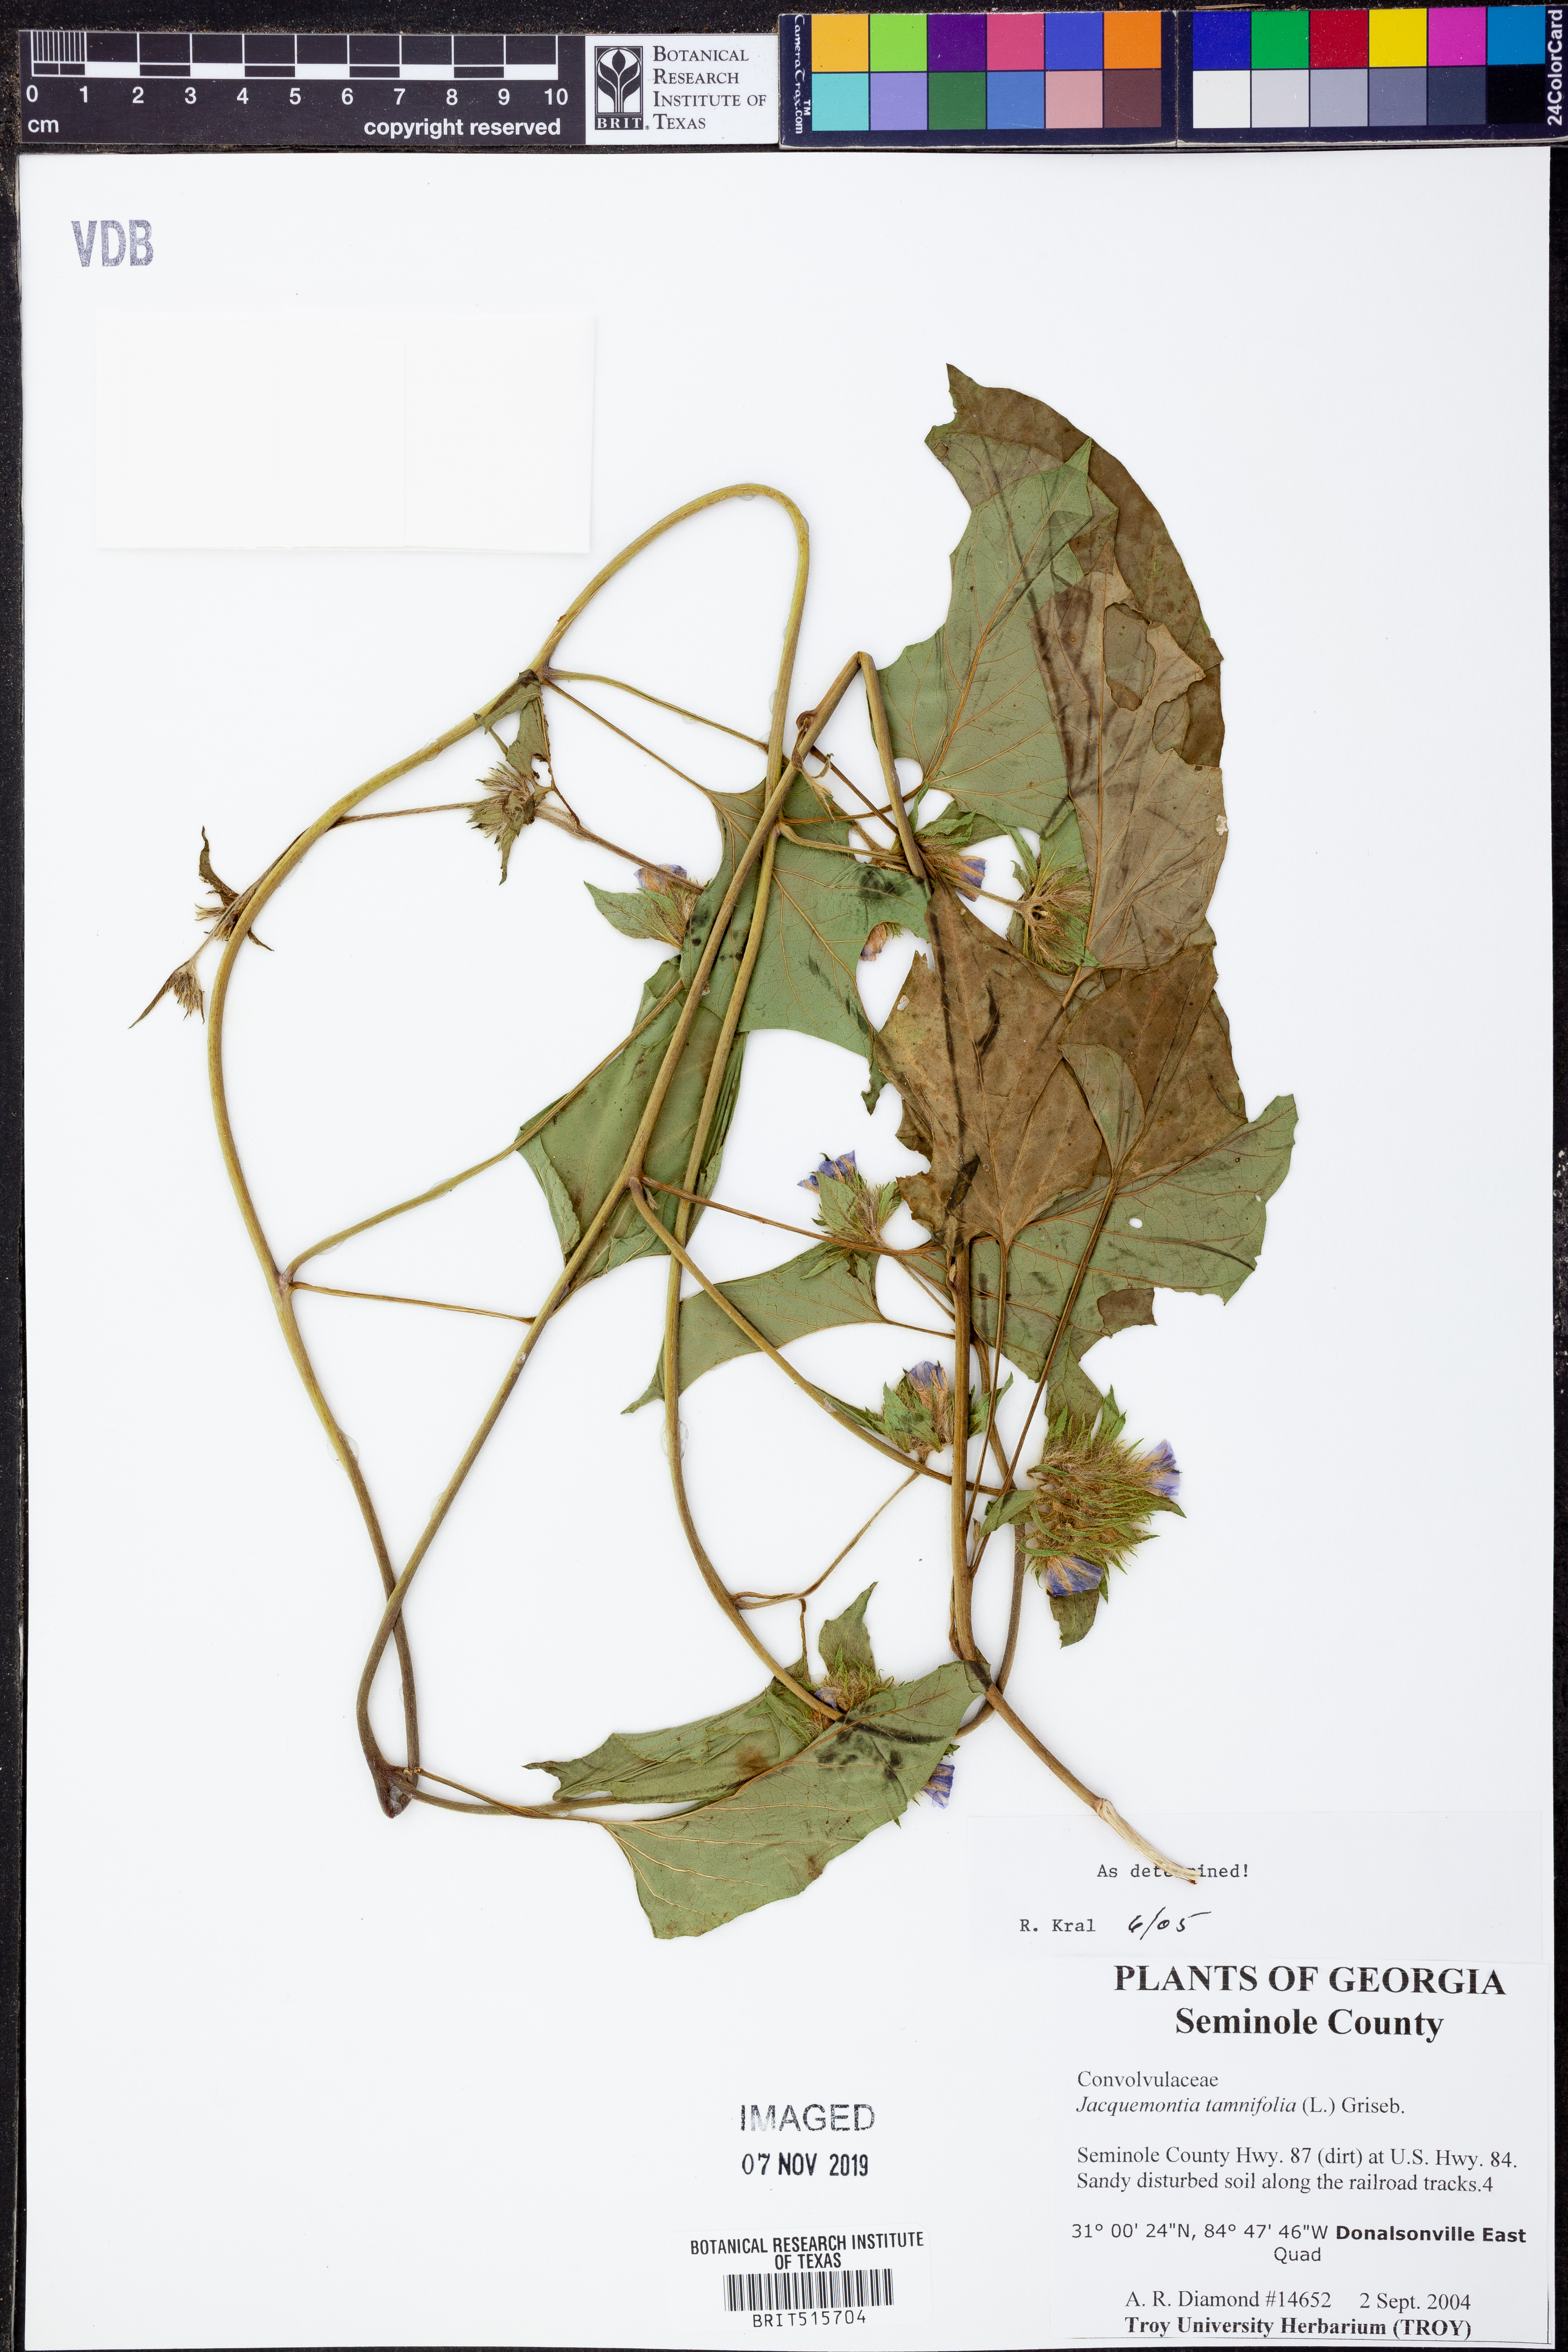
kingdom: Plantae
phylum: Tracheophyta
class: Magnoliopsida
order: Solanales
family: Convolvulaceae
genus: Jacquemontia
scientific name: Jacquemontia tamnifolia
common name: Hairy clustervine
